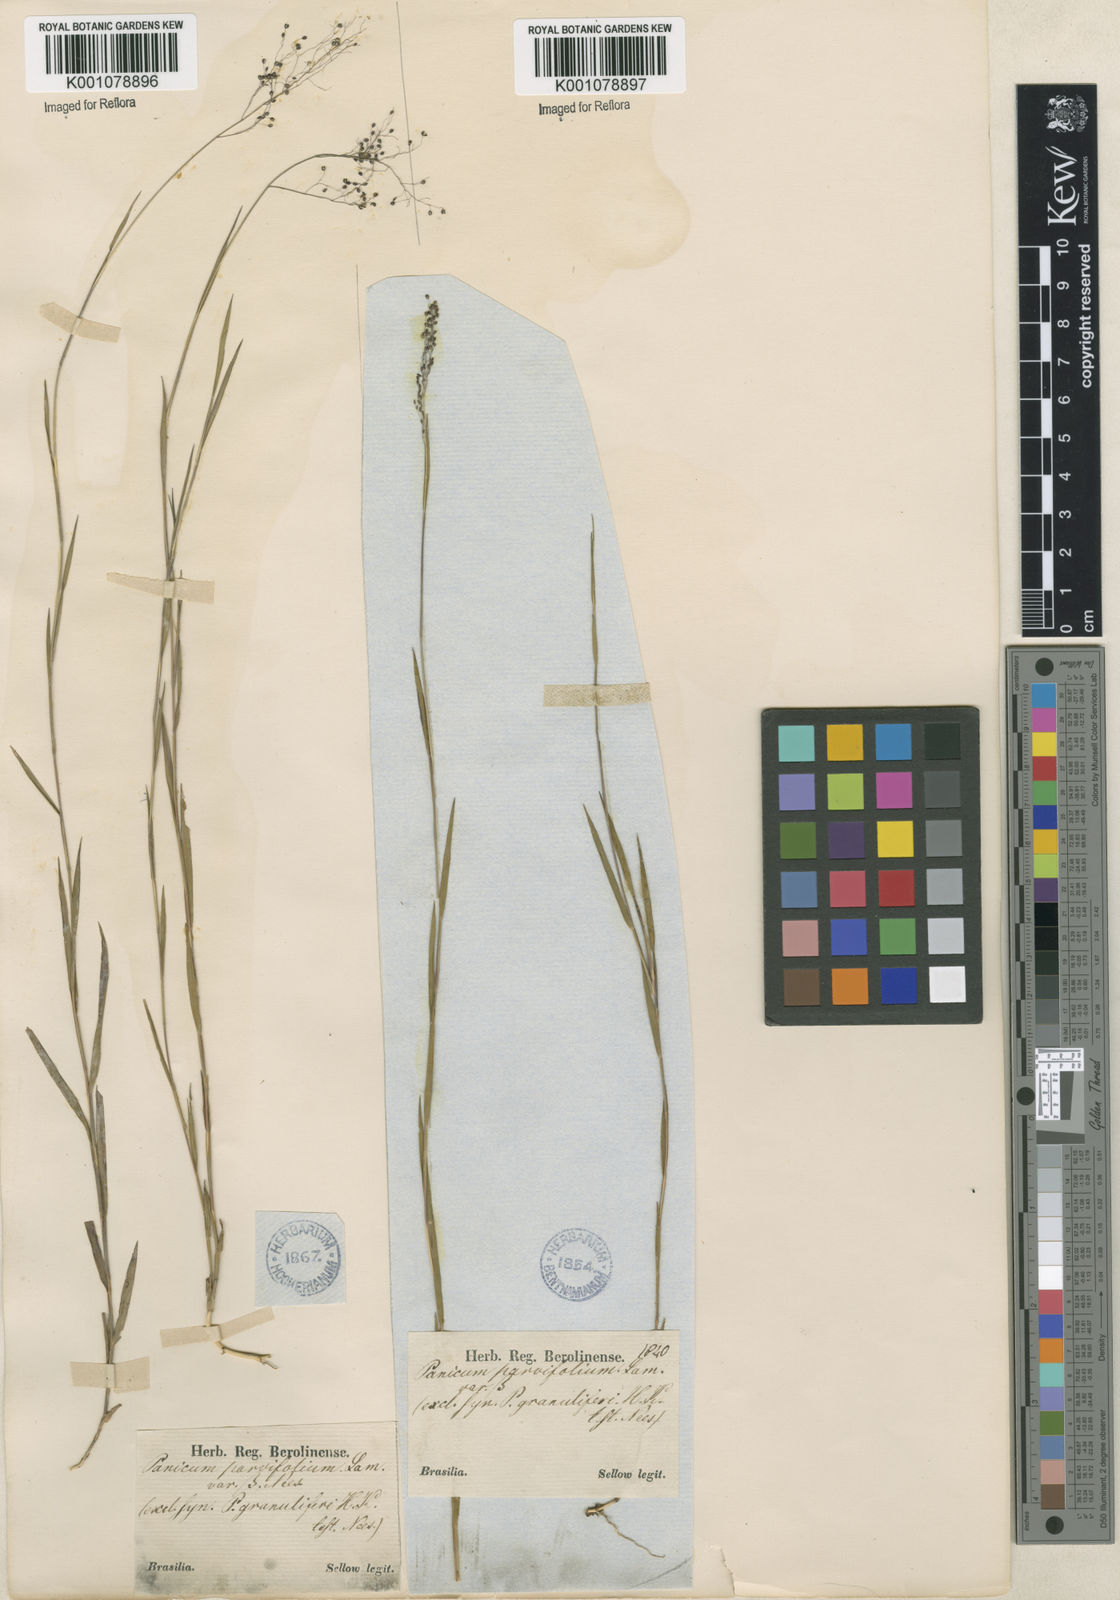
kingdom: Plantae
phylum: Tracheophyta
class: Liliopsida
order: Poales
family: Poaceae
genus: Trichanthecium
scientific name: Trichanthecium cyanescens
